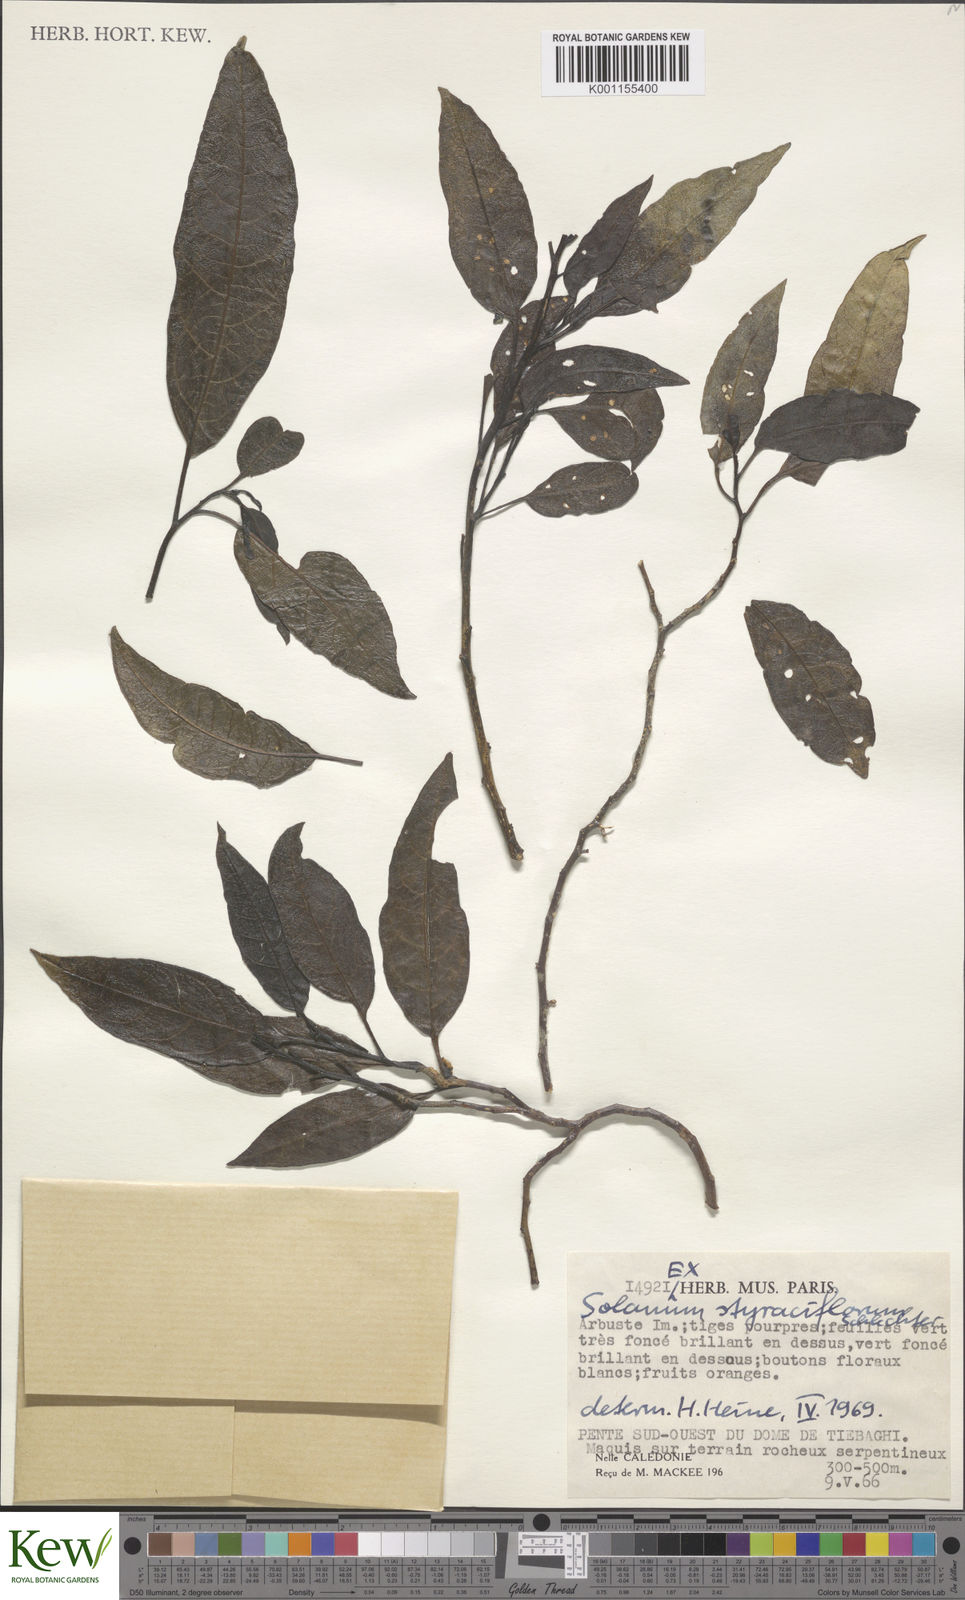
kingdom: Plantae
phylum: Tracheophyta
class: Magnoliopsida
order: Solanales
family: Solanaceae
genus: Solanum
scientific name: Solanum artense
